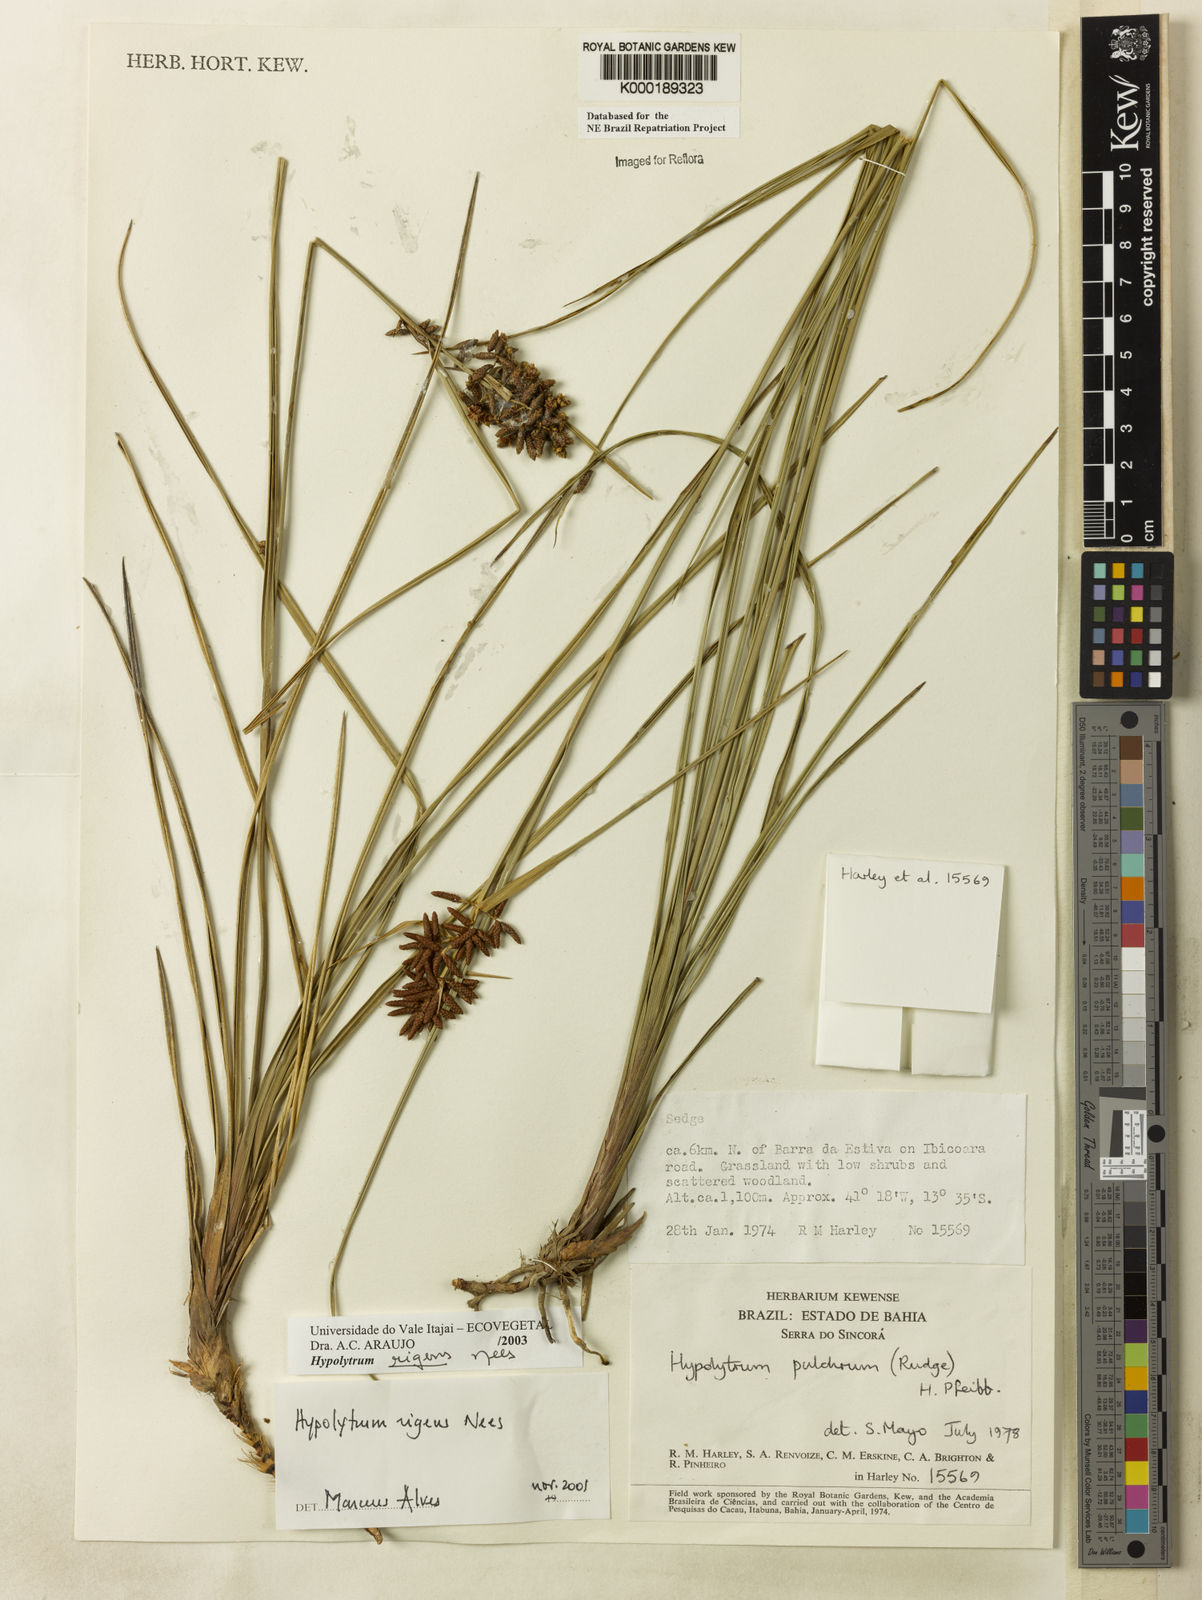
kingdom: Plantae
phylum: Tracheophyta
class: Liliopsida
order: Poales
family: Cyperaceae
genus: Hypolytrum
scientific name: Hypolytrum rigens
